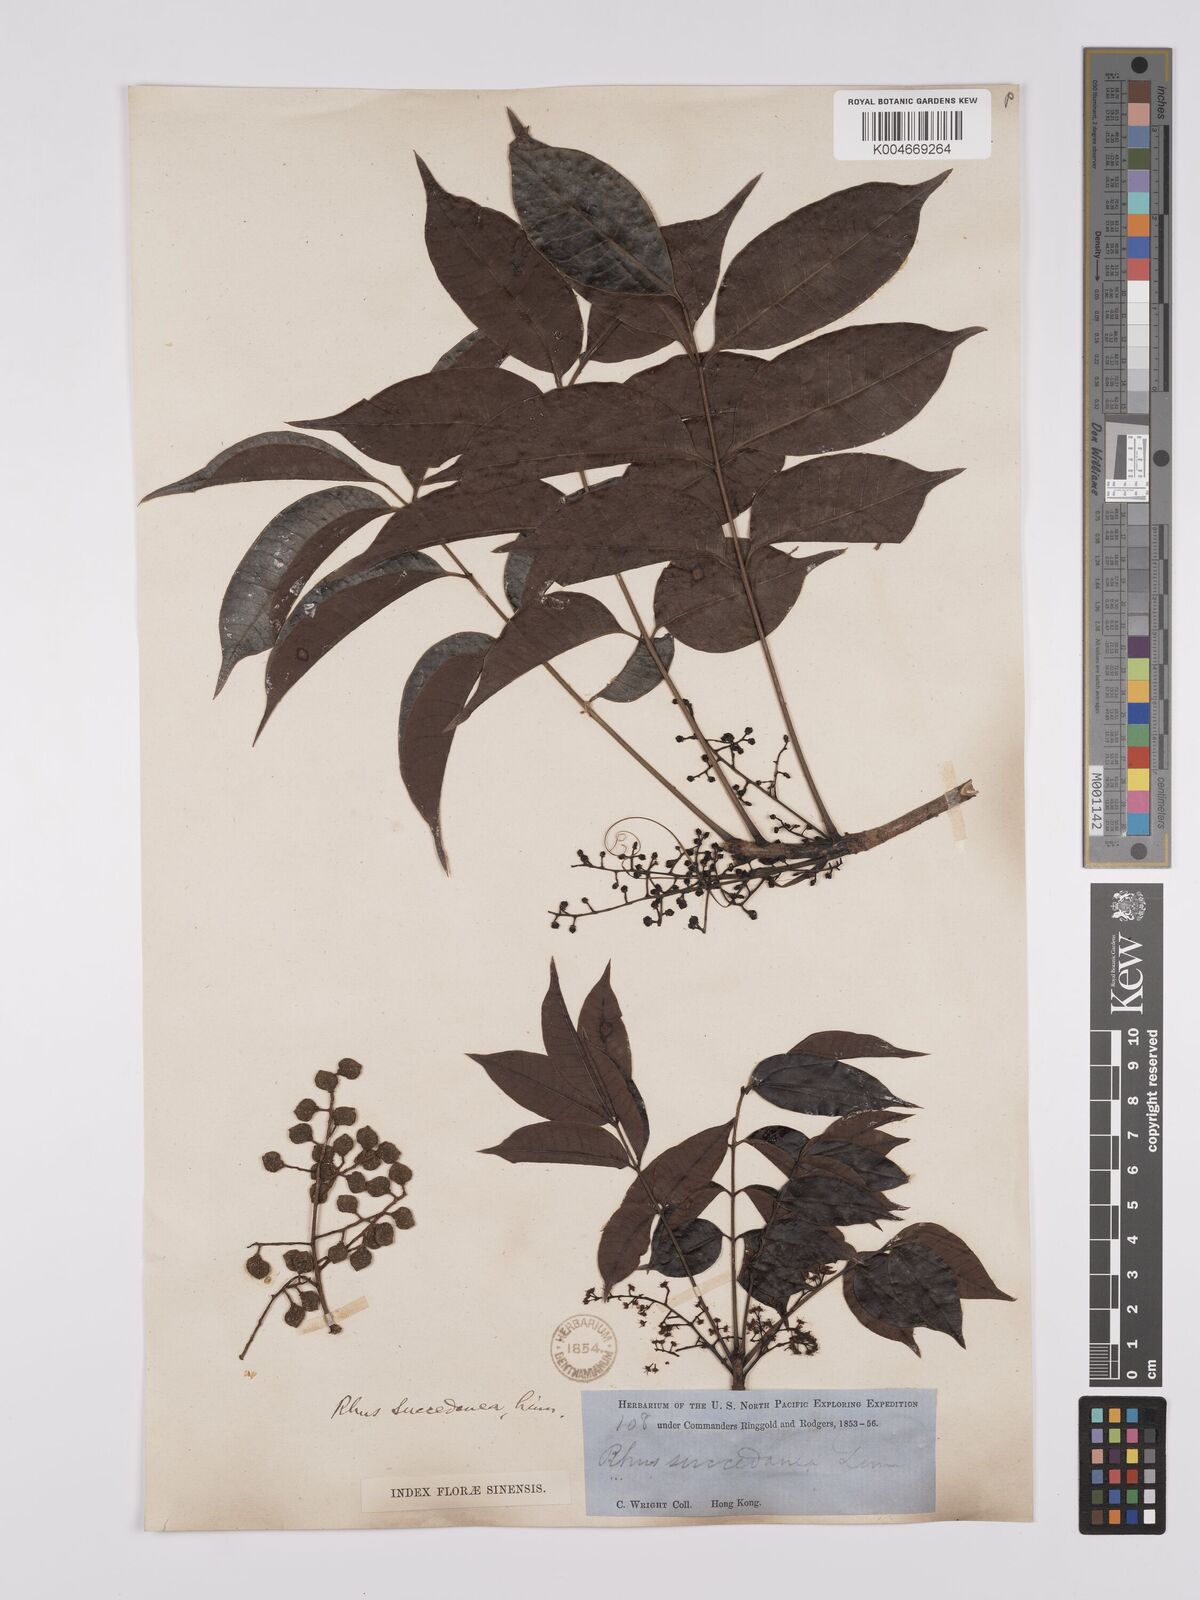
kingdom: Plantae
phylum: Tracheophyta
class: Magnoliopsida
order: Sapindales
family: Anacardiaceae
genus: Toxicodendron
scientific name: Toxicodendron succedaneum
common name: Wax tree
